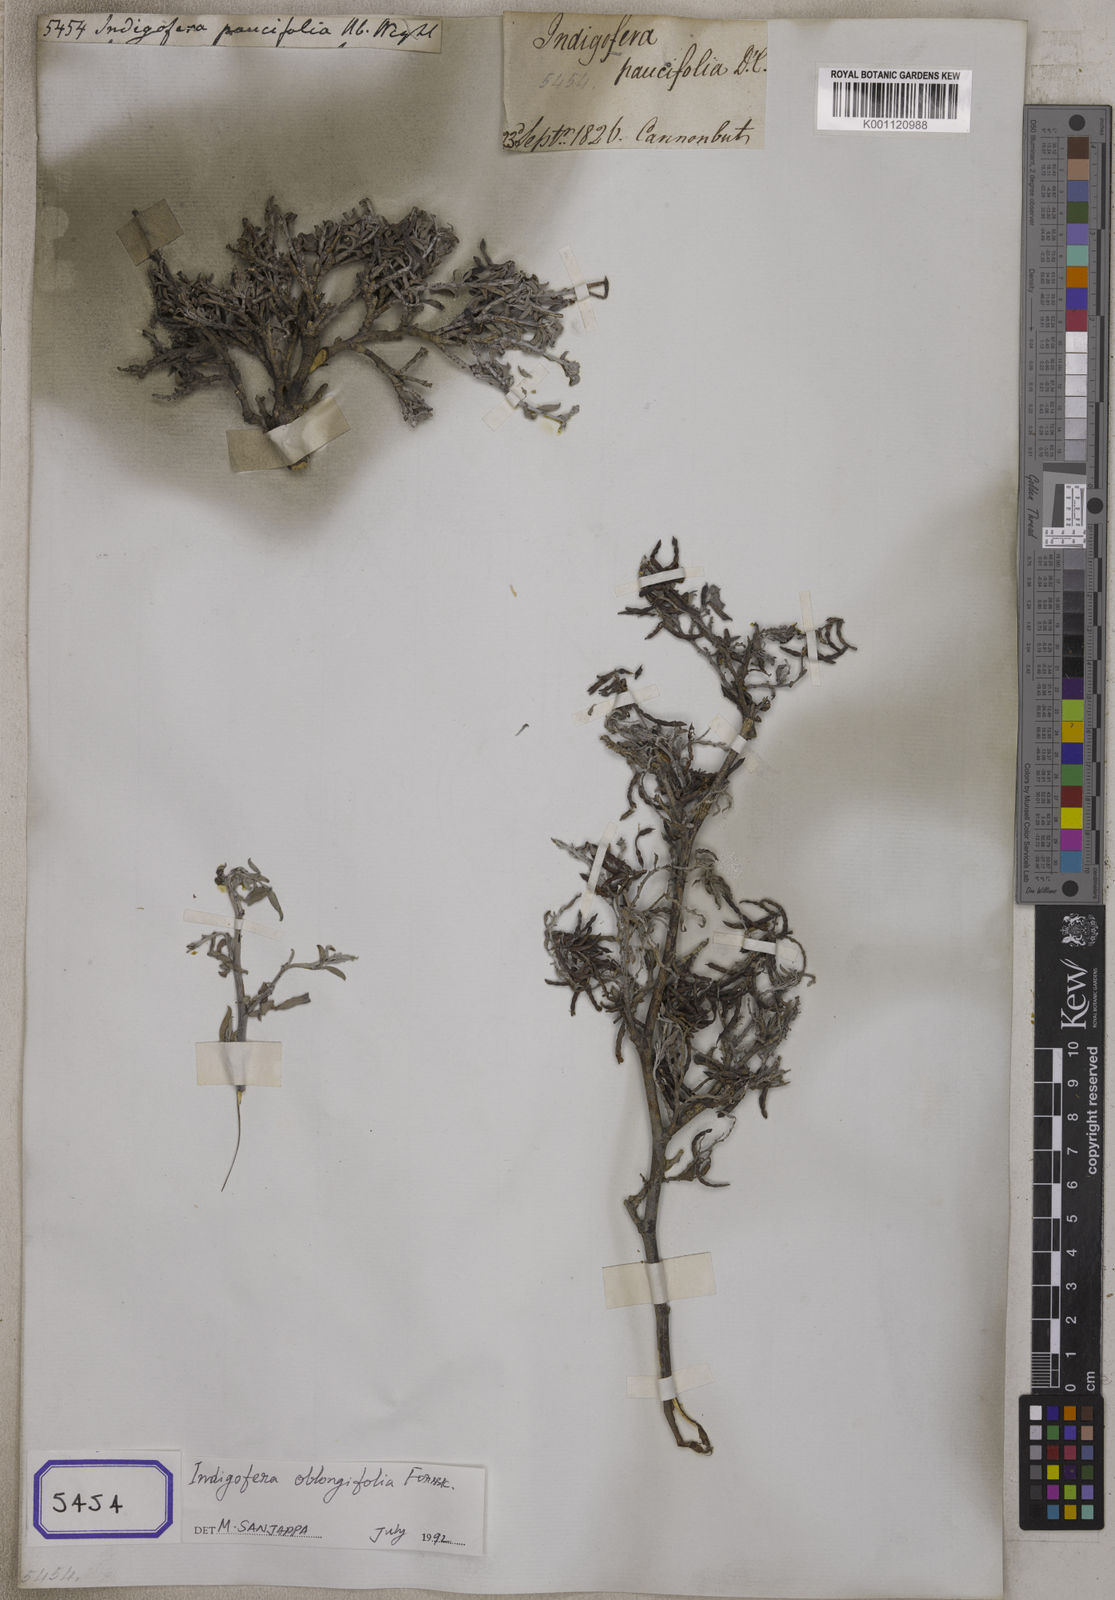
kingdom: Plantae
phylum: Tracheophyta
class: Magnoliopsida
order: Fabales
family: Fabaceae
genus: Indigastrum
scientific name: Indigastrum parviflorum
